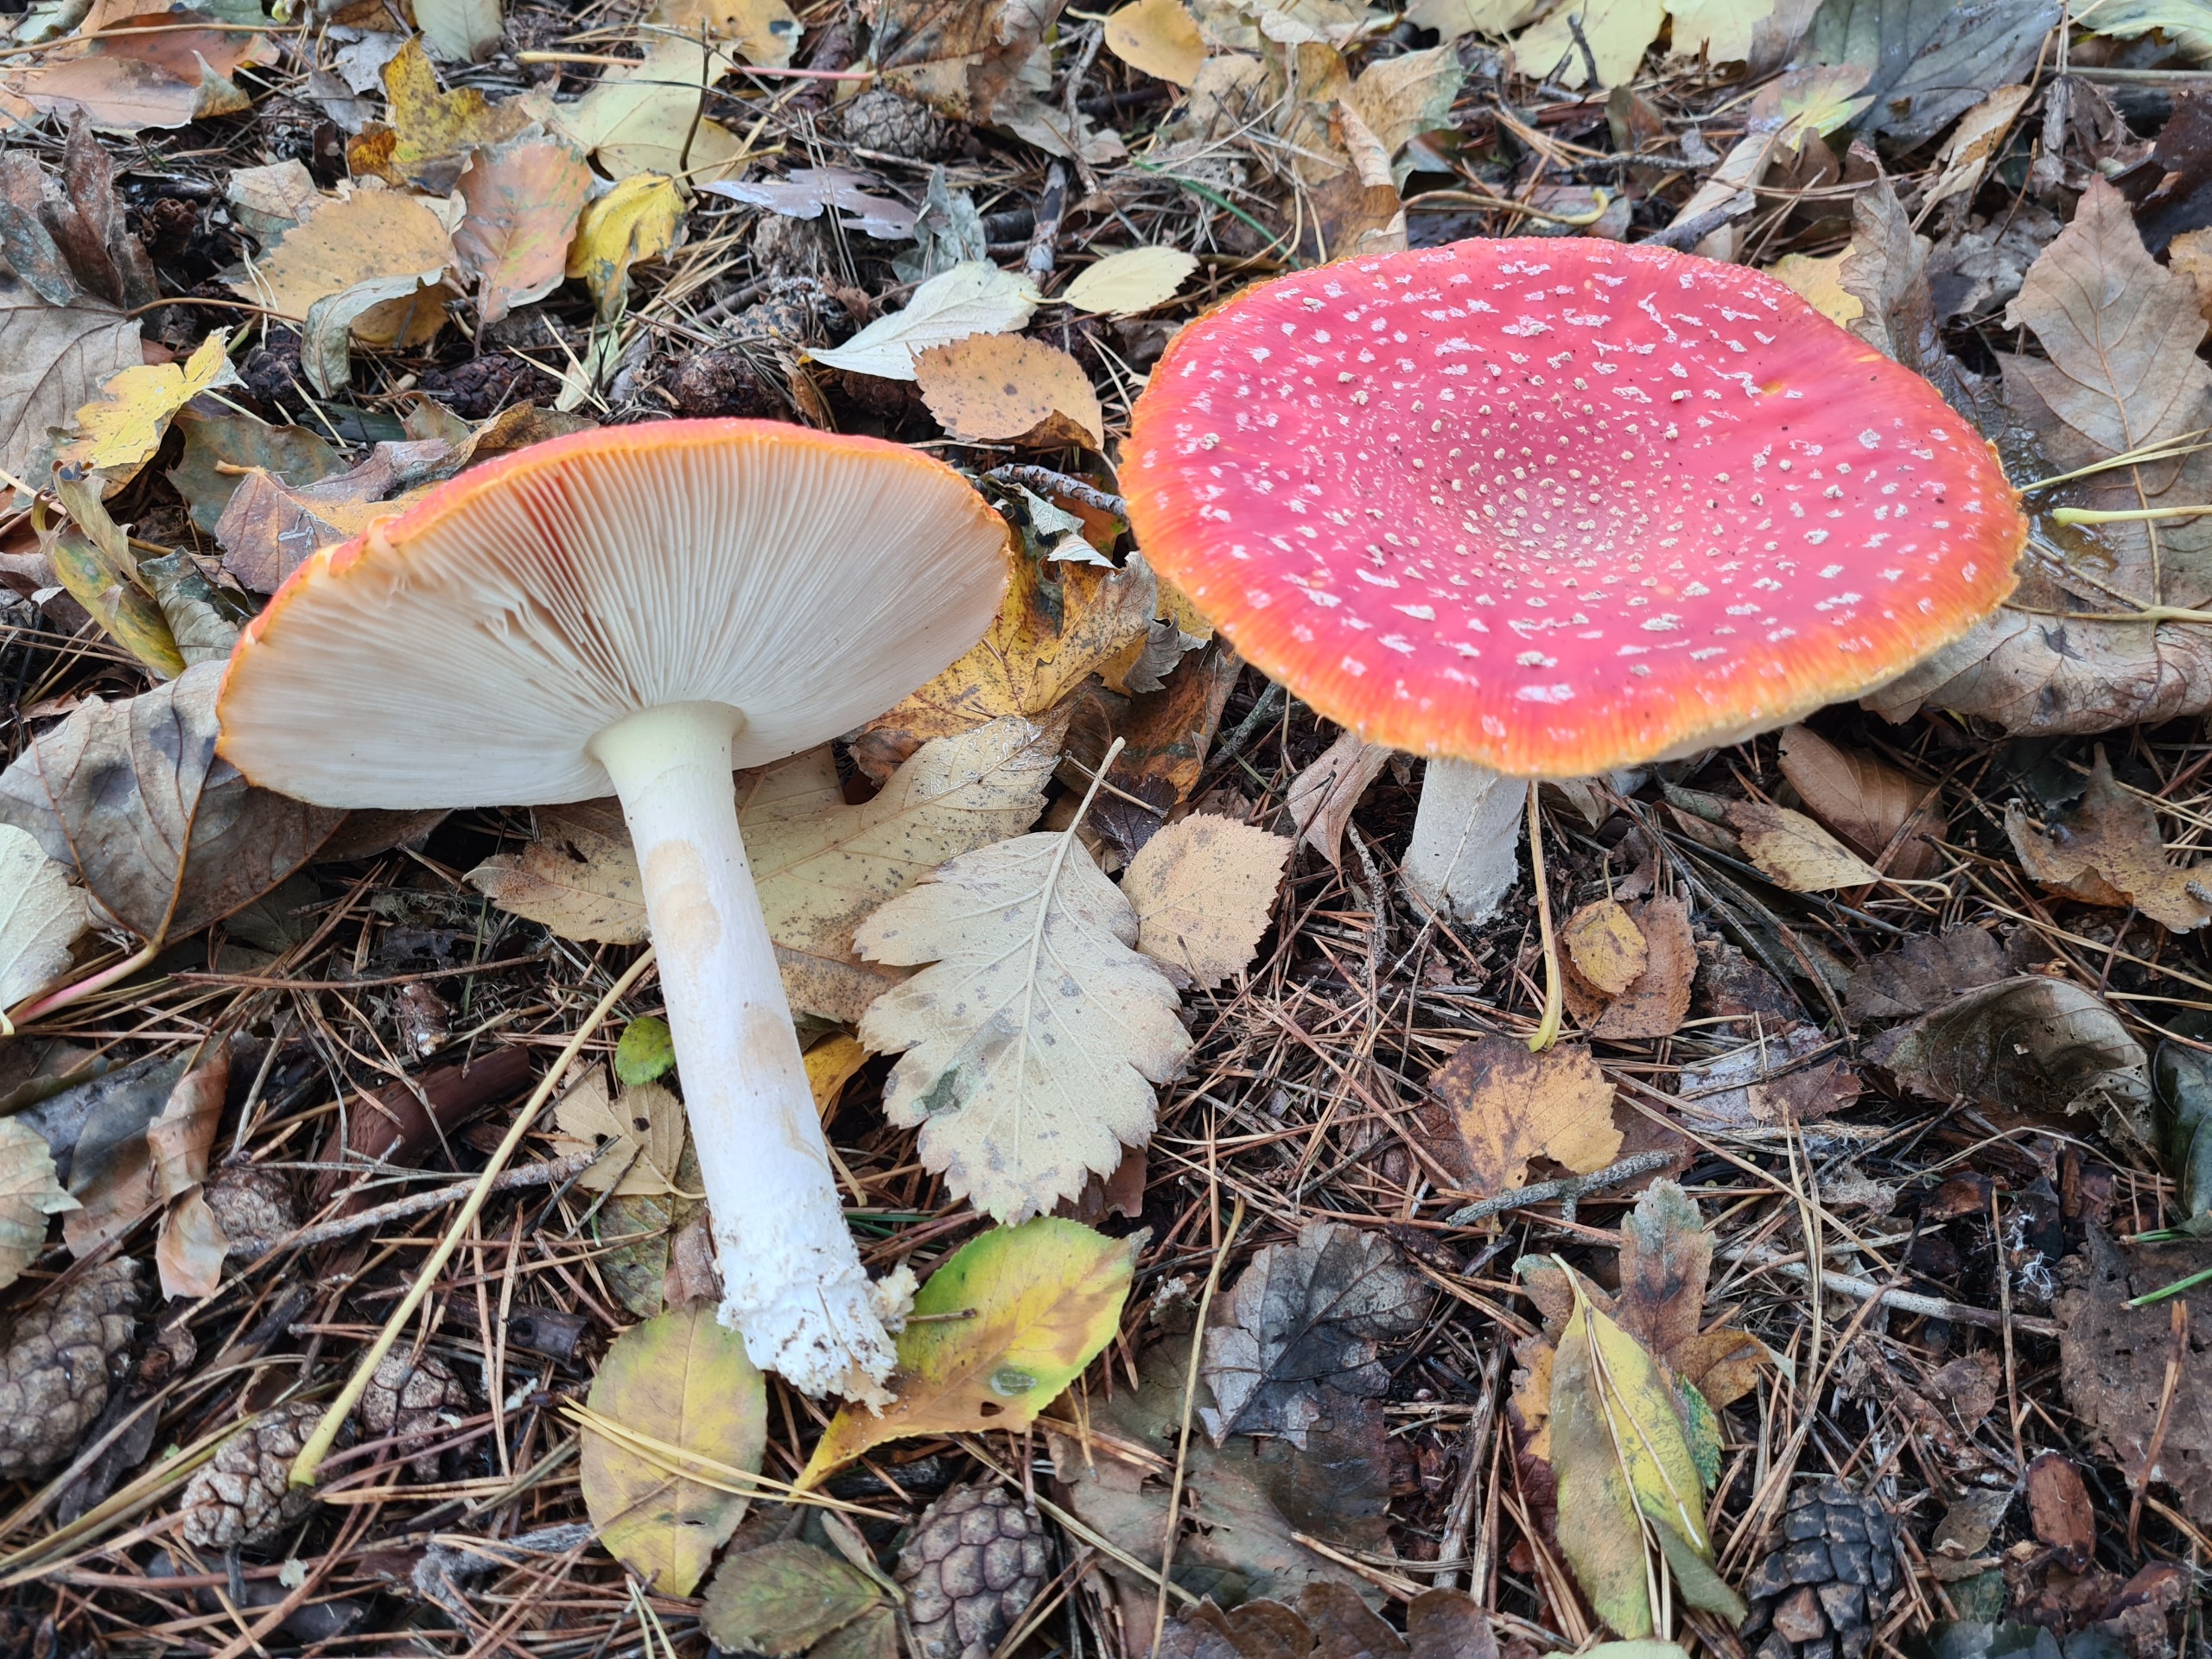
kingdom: Fungi
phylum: Basidiomycota
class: Agaricomycetes
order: Agaricales
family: Amanitaceae
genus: Amanita
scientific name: Amanita muscaria
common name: Rød fluesvamp
